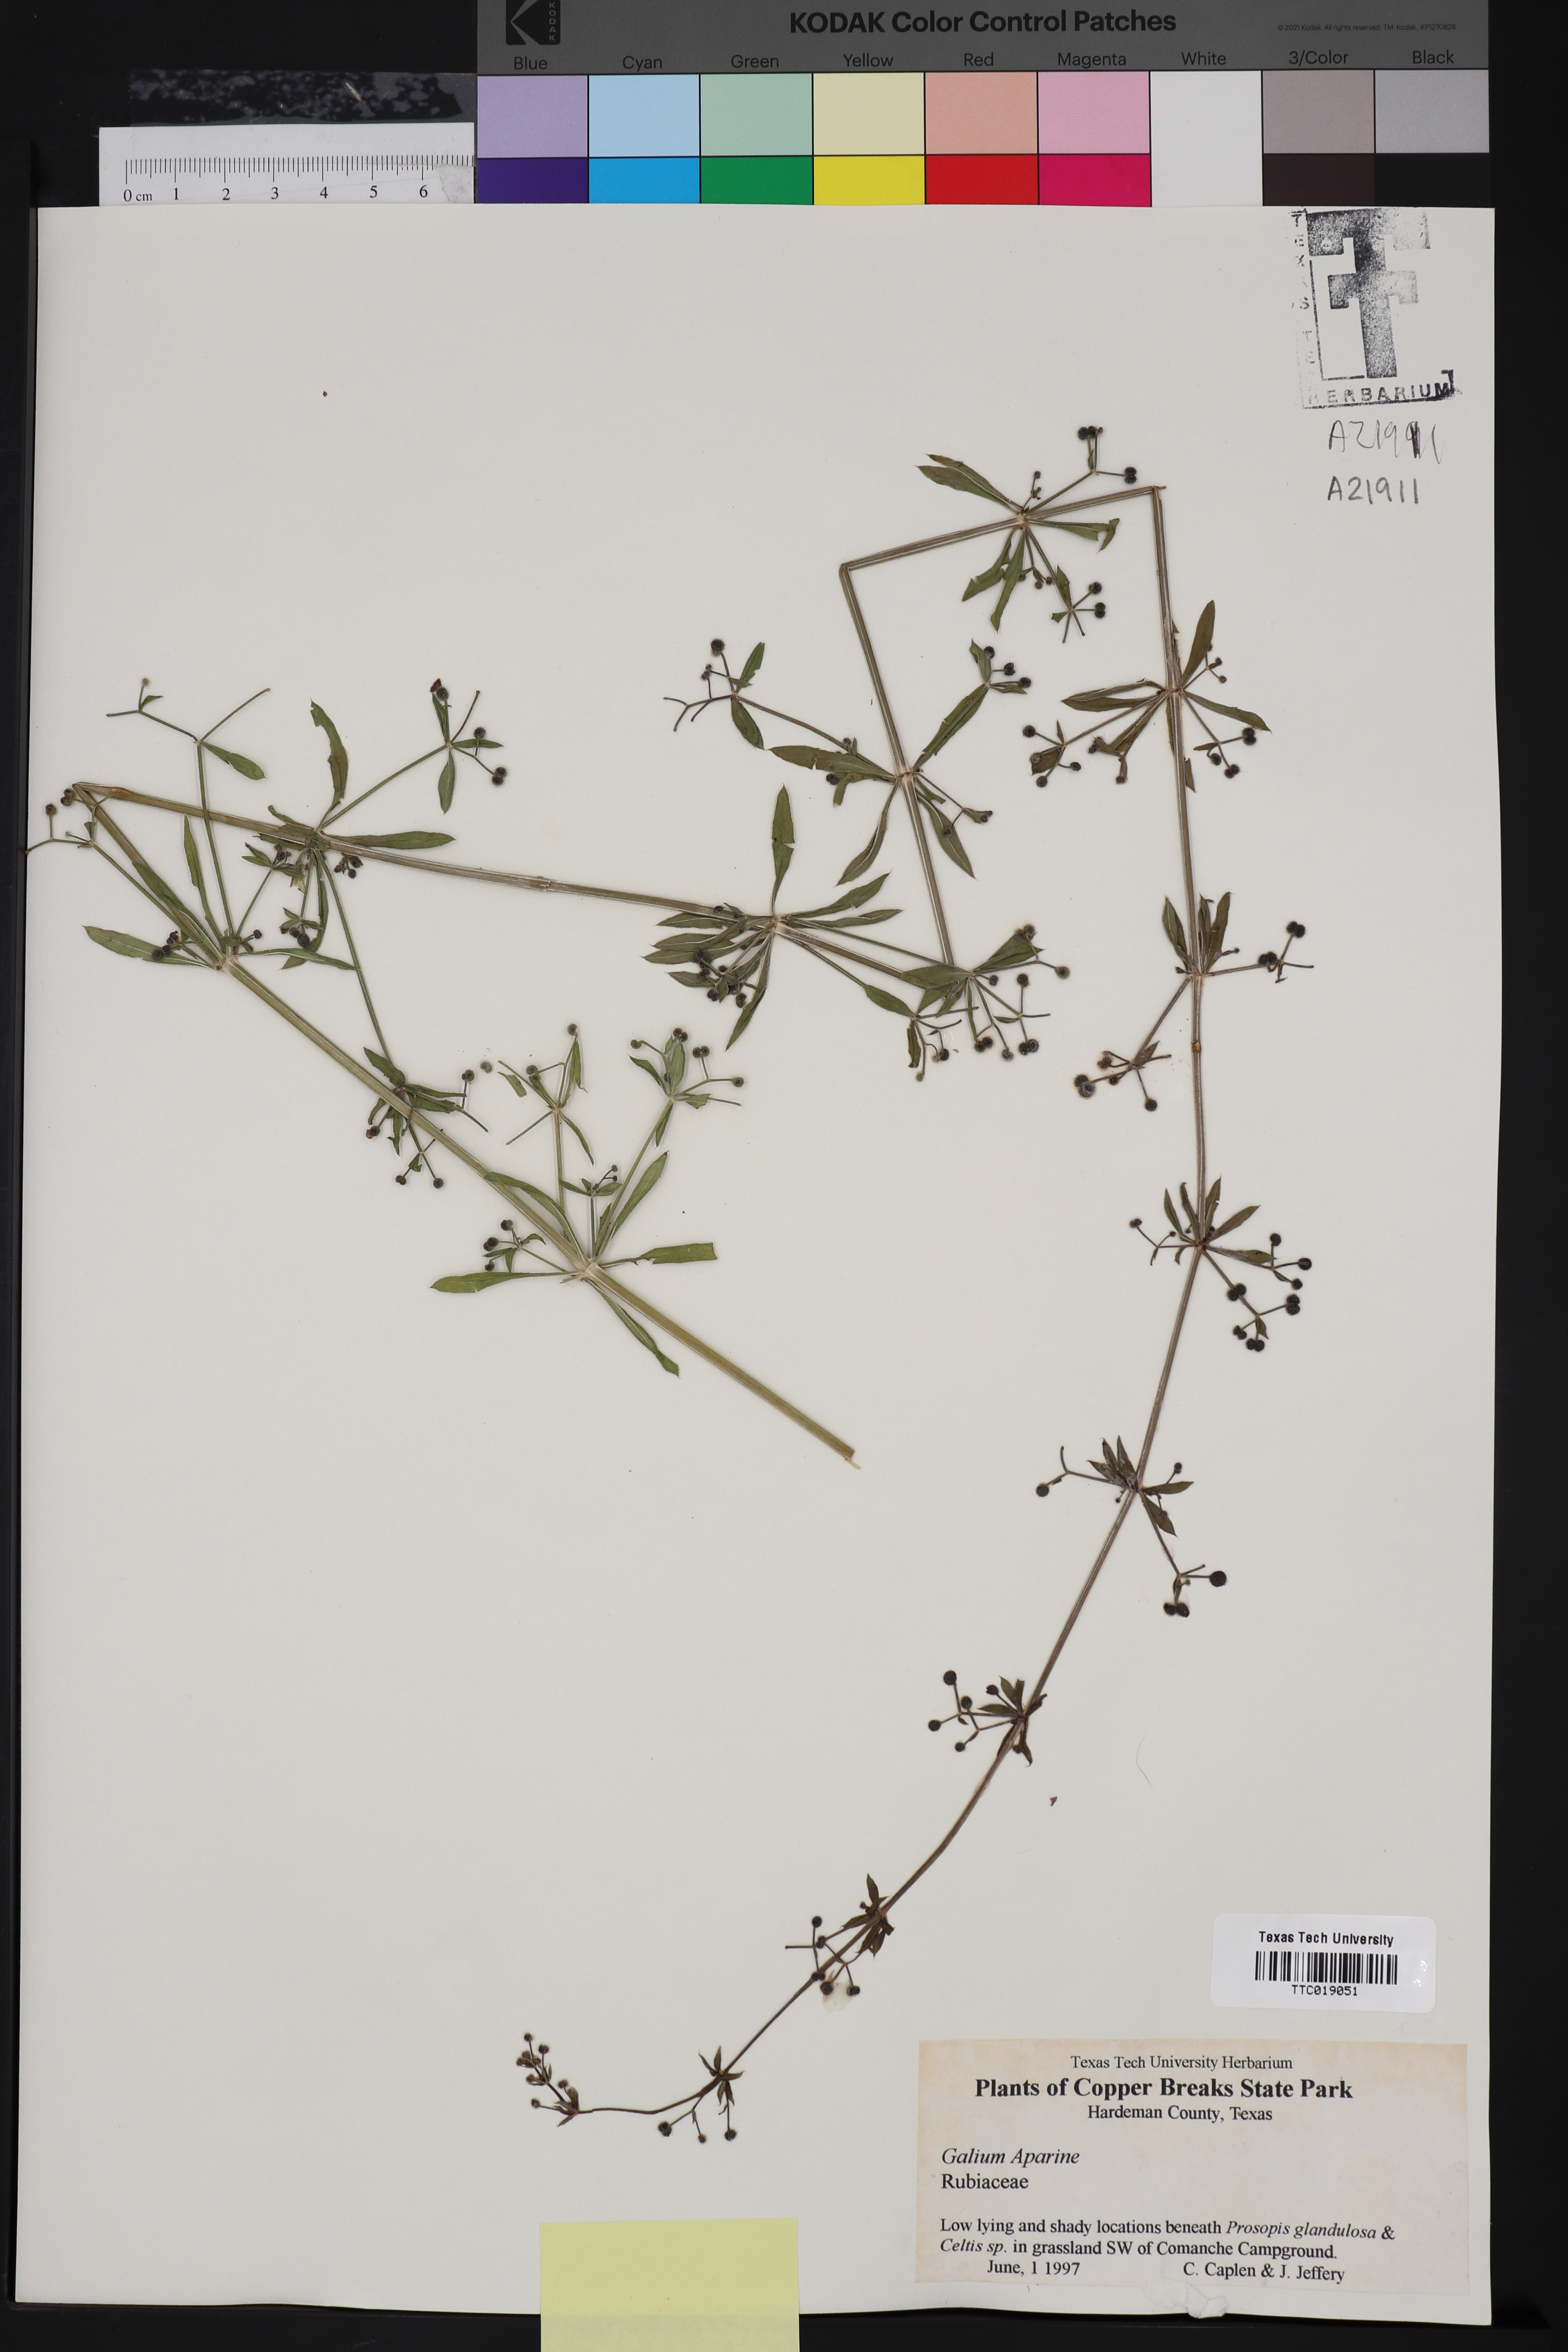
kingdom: Plantae
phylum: Tracheophyta
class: Magnoliopsida
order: Gentianales
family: Rubiaceae
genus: Galium
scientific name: Galium aparine
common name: Cleavers
